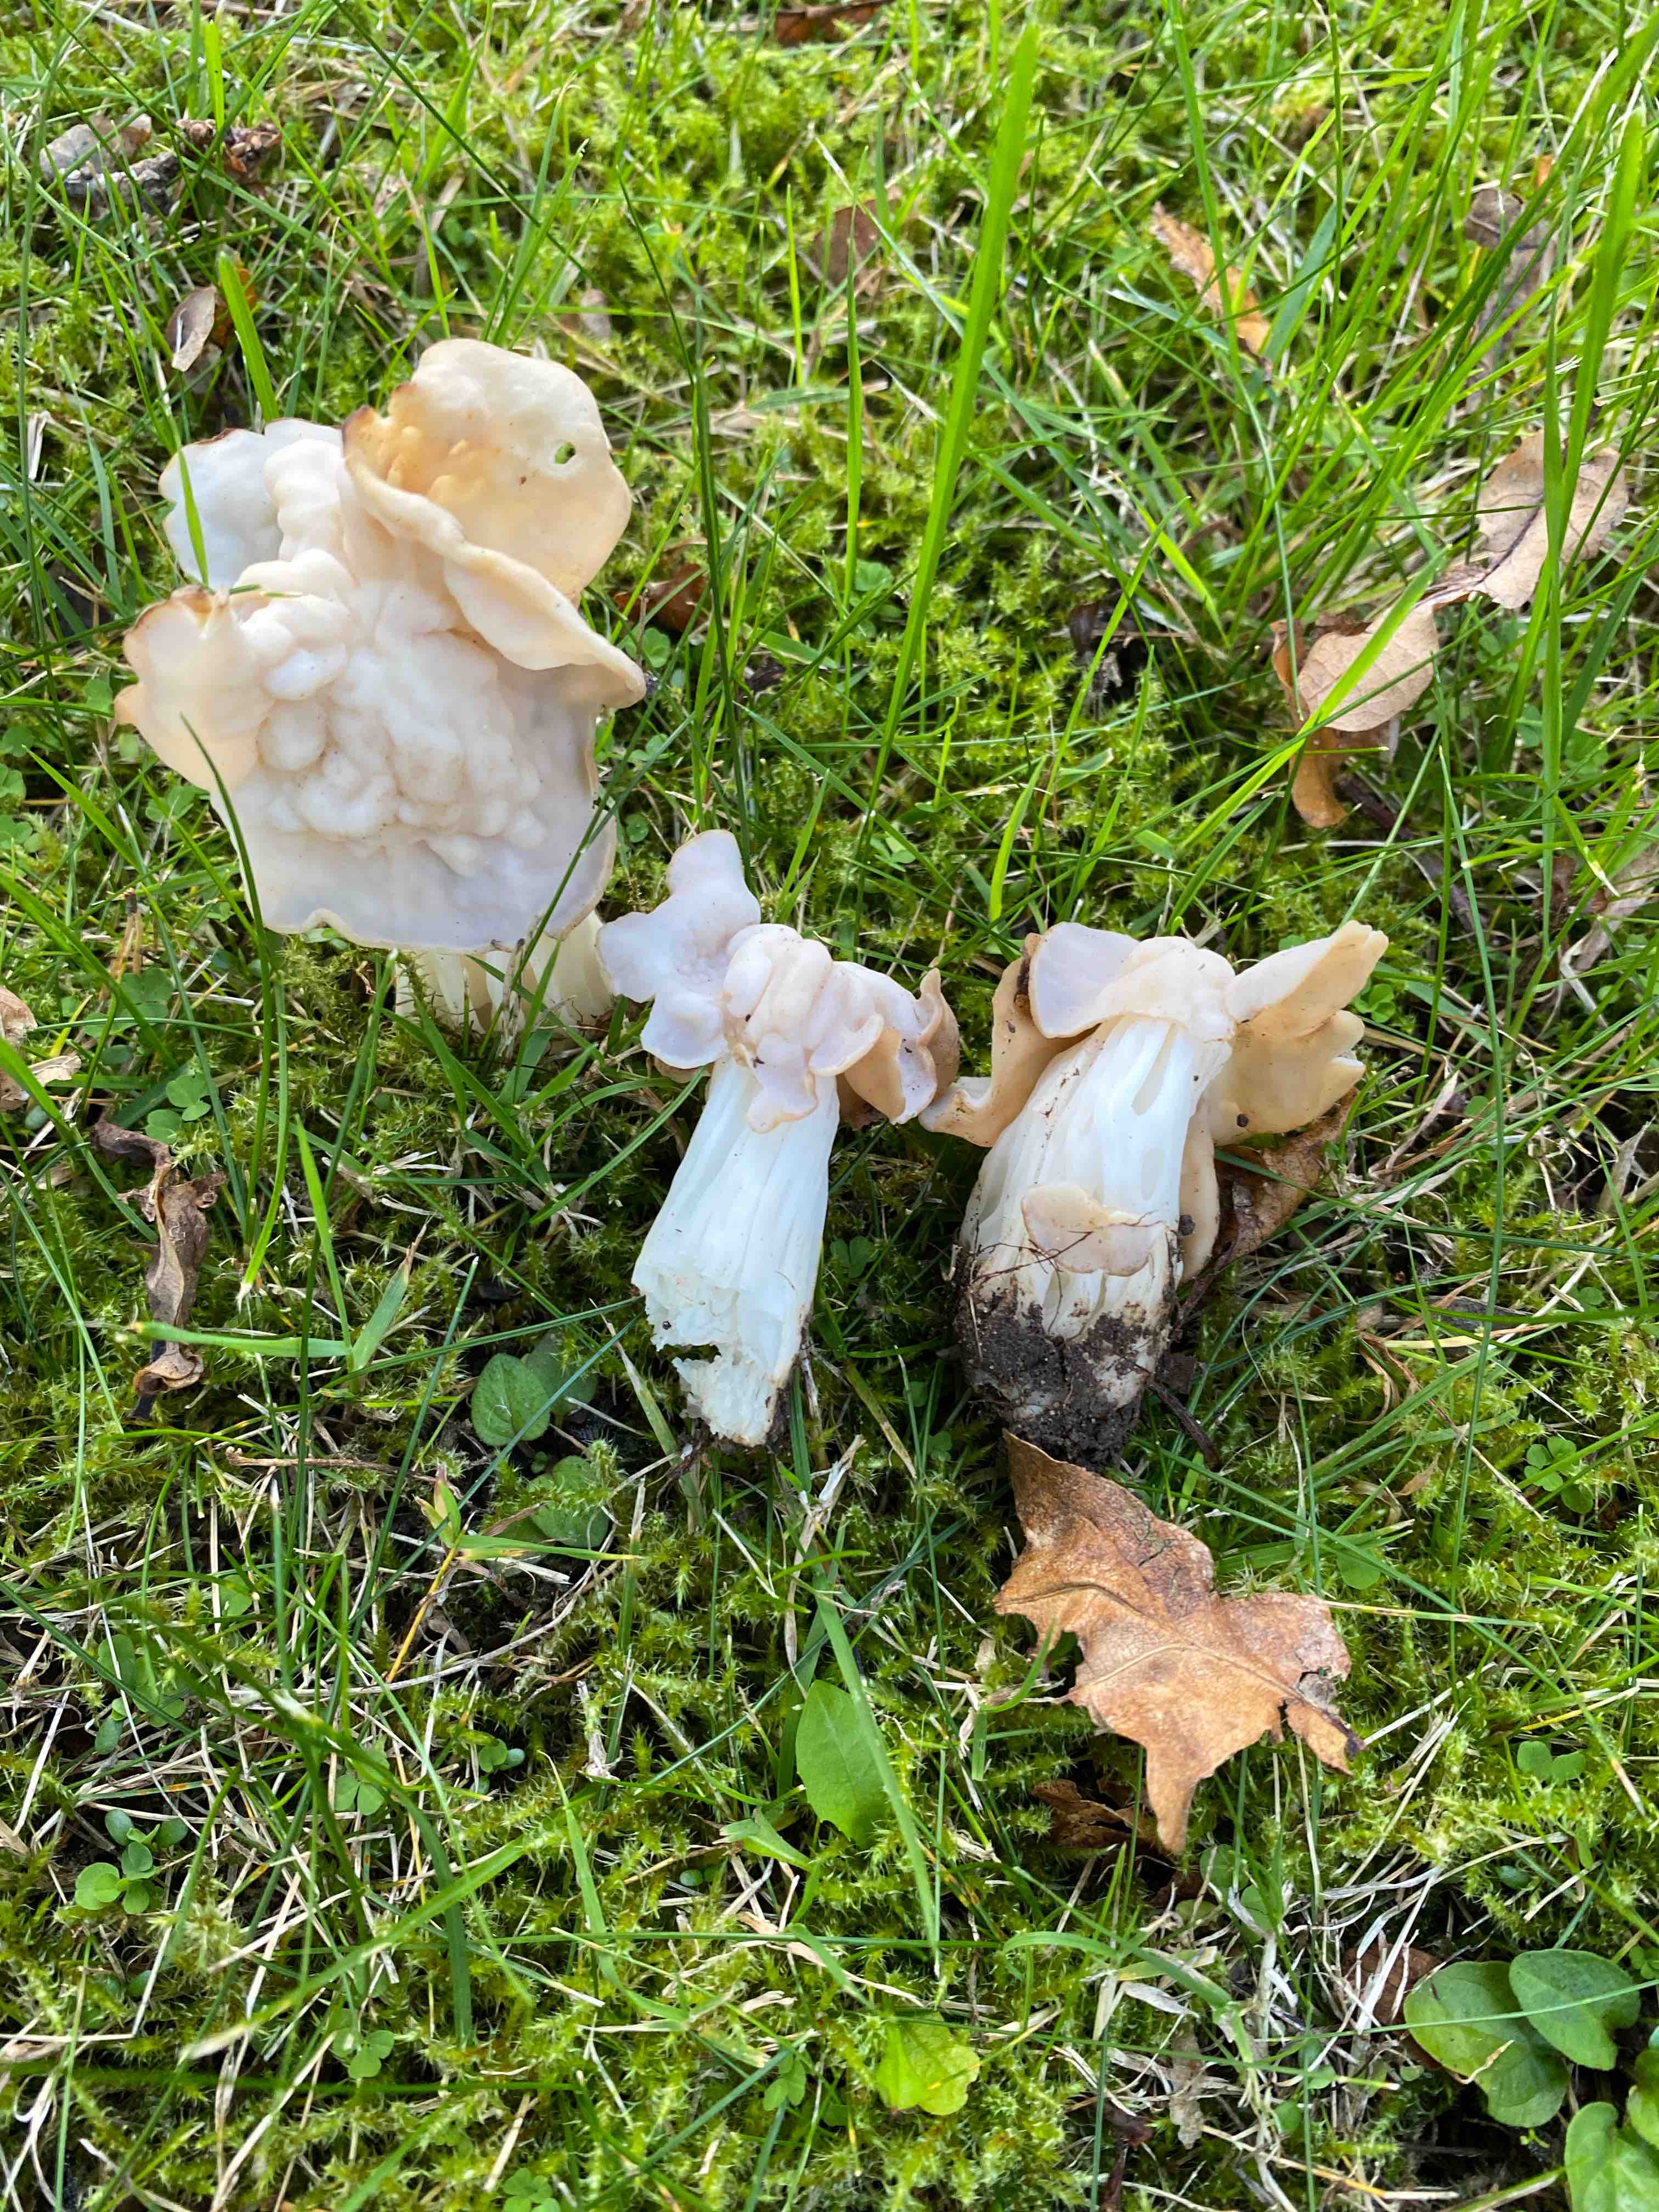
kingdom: Fungi
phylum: Ascomycota
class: Pezizomycetes
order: Pezizales
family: Helvellaceae
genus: Helvella
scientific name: Helvella crispa
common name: kruset foldhat
